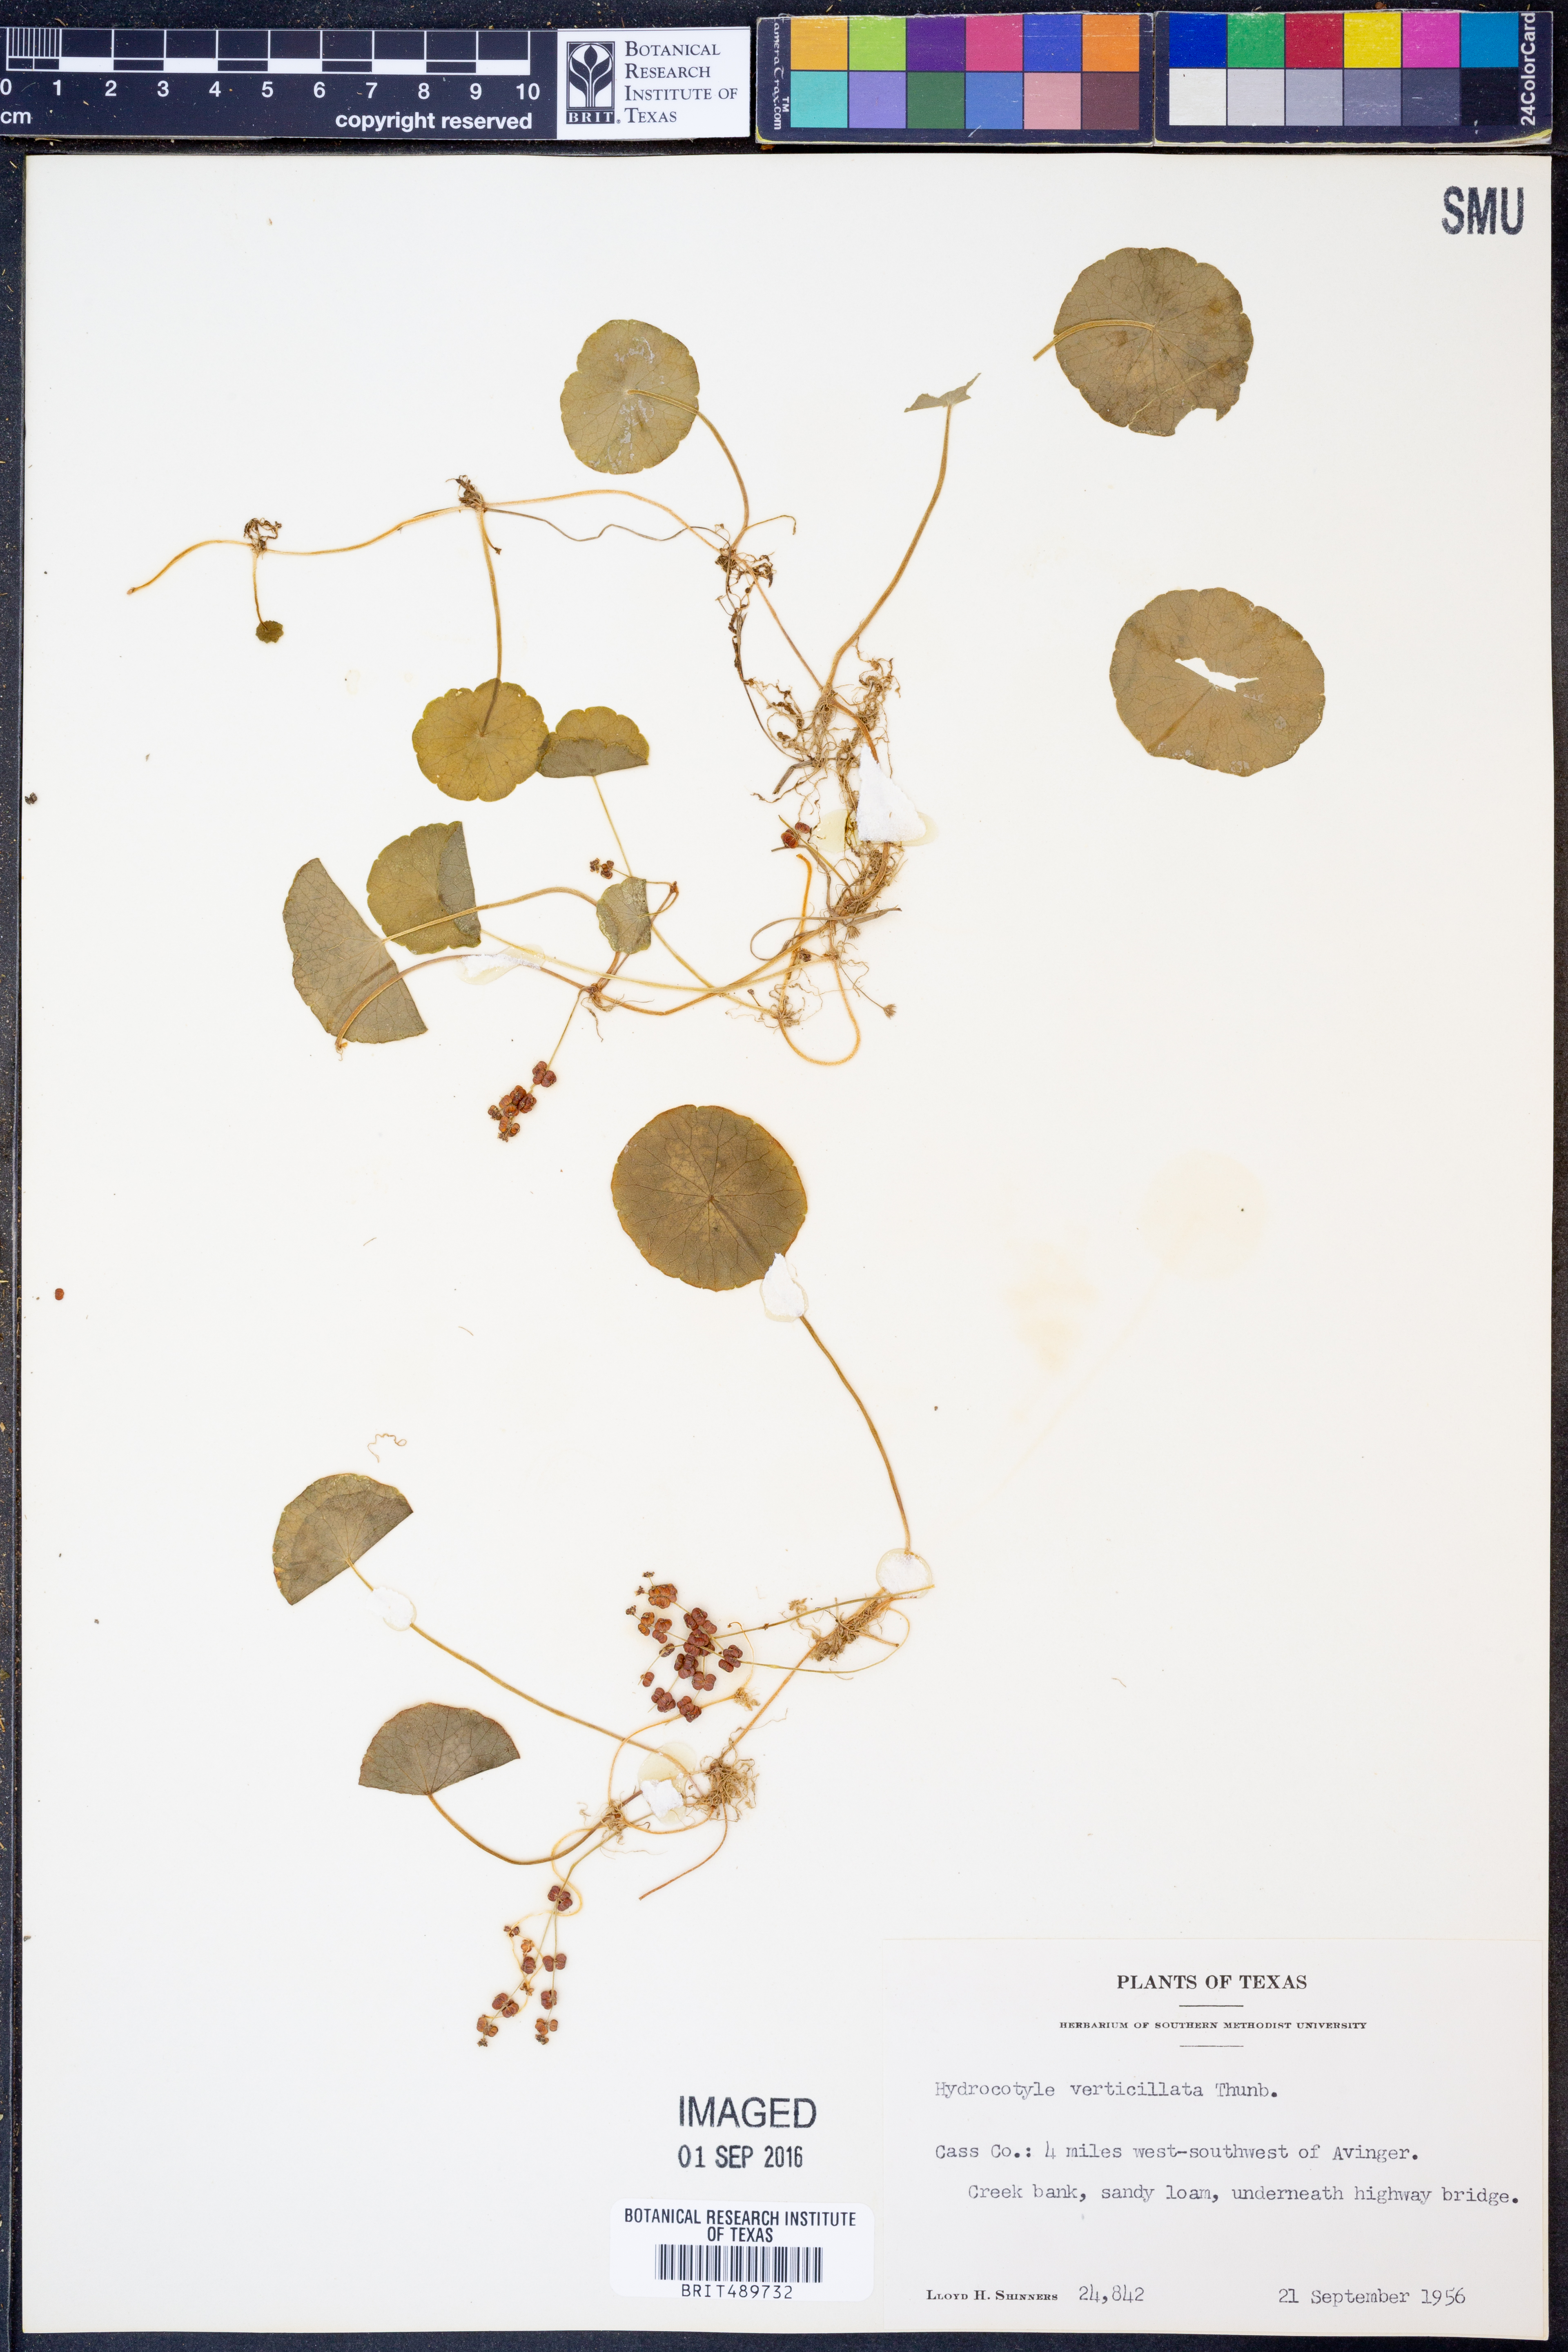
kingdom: Plantae
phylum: Tracheophyta
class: Magnoliopsida
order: Apiales
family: Araliaceae
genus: Hydrocotyle
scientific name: Hydrocotyle verticillata
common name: Whorled marshpennywort
